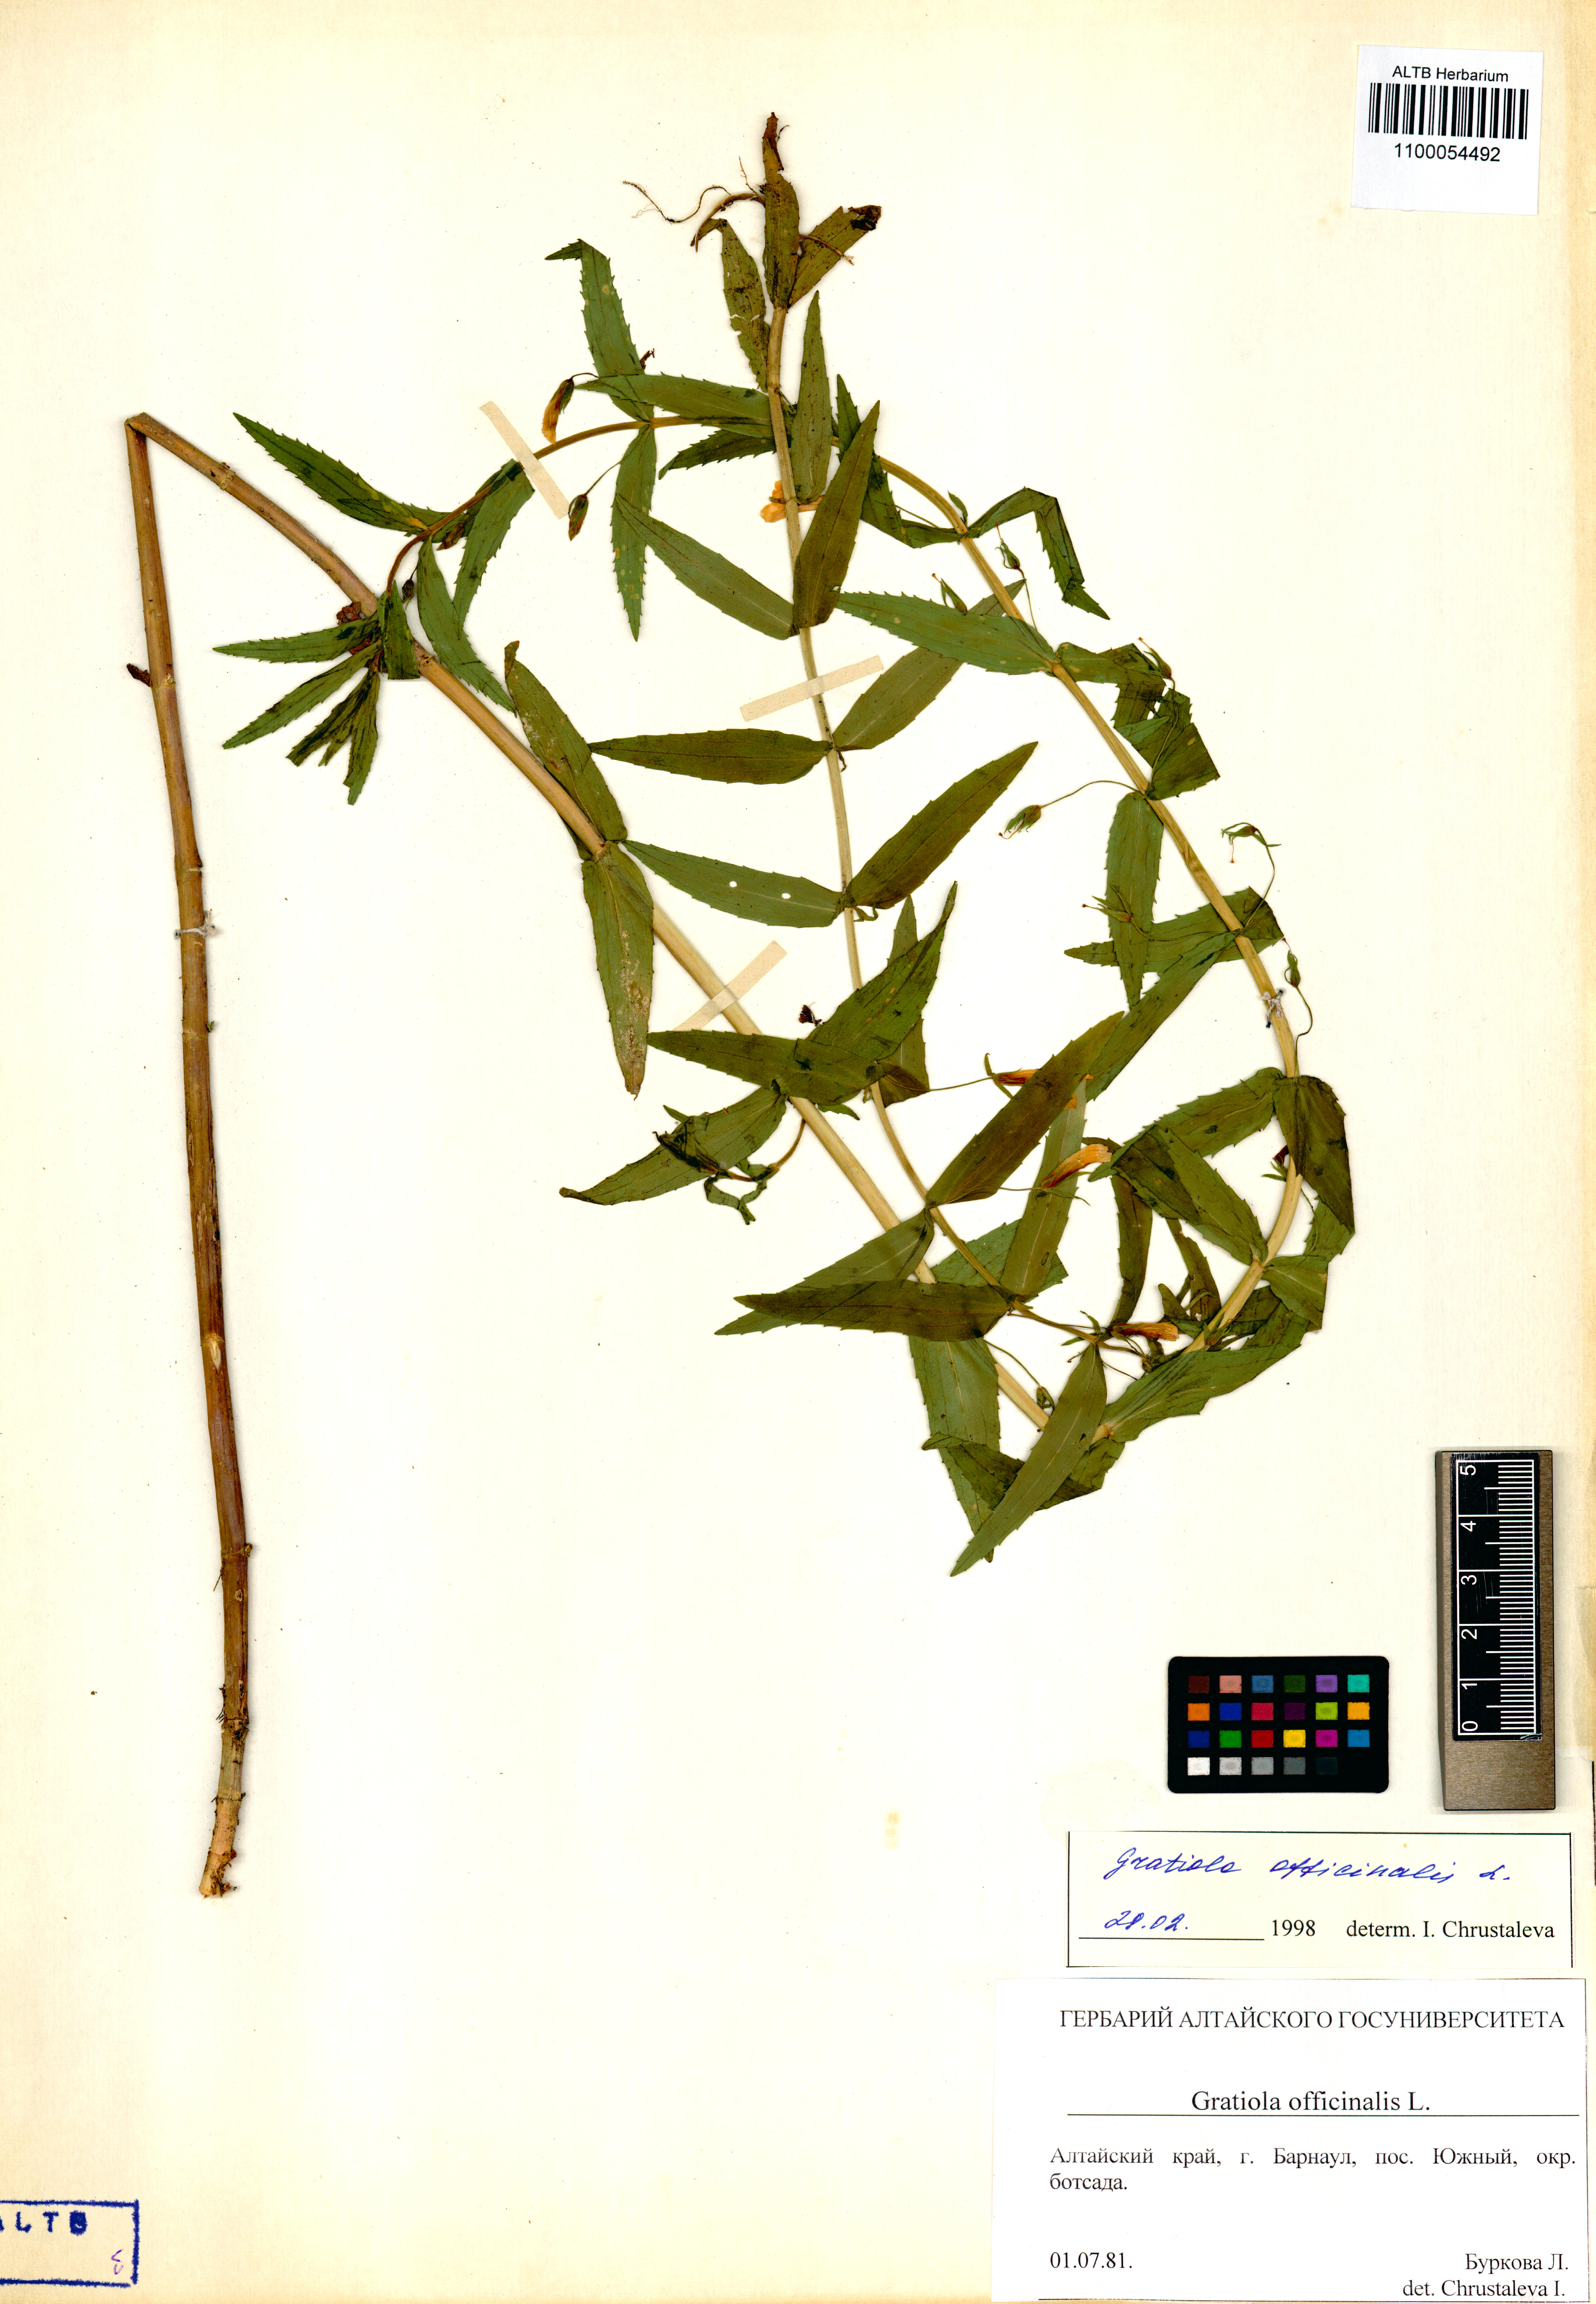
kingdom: Plantae
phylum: Tracheophyta
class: Magnoliopsida
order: Lamiales
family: Plantaginaceae
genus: Gratiola
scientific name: Gratiola officinalis
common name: Gratiola
